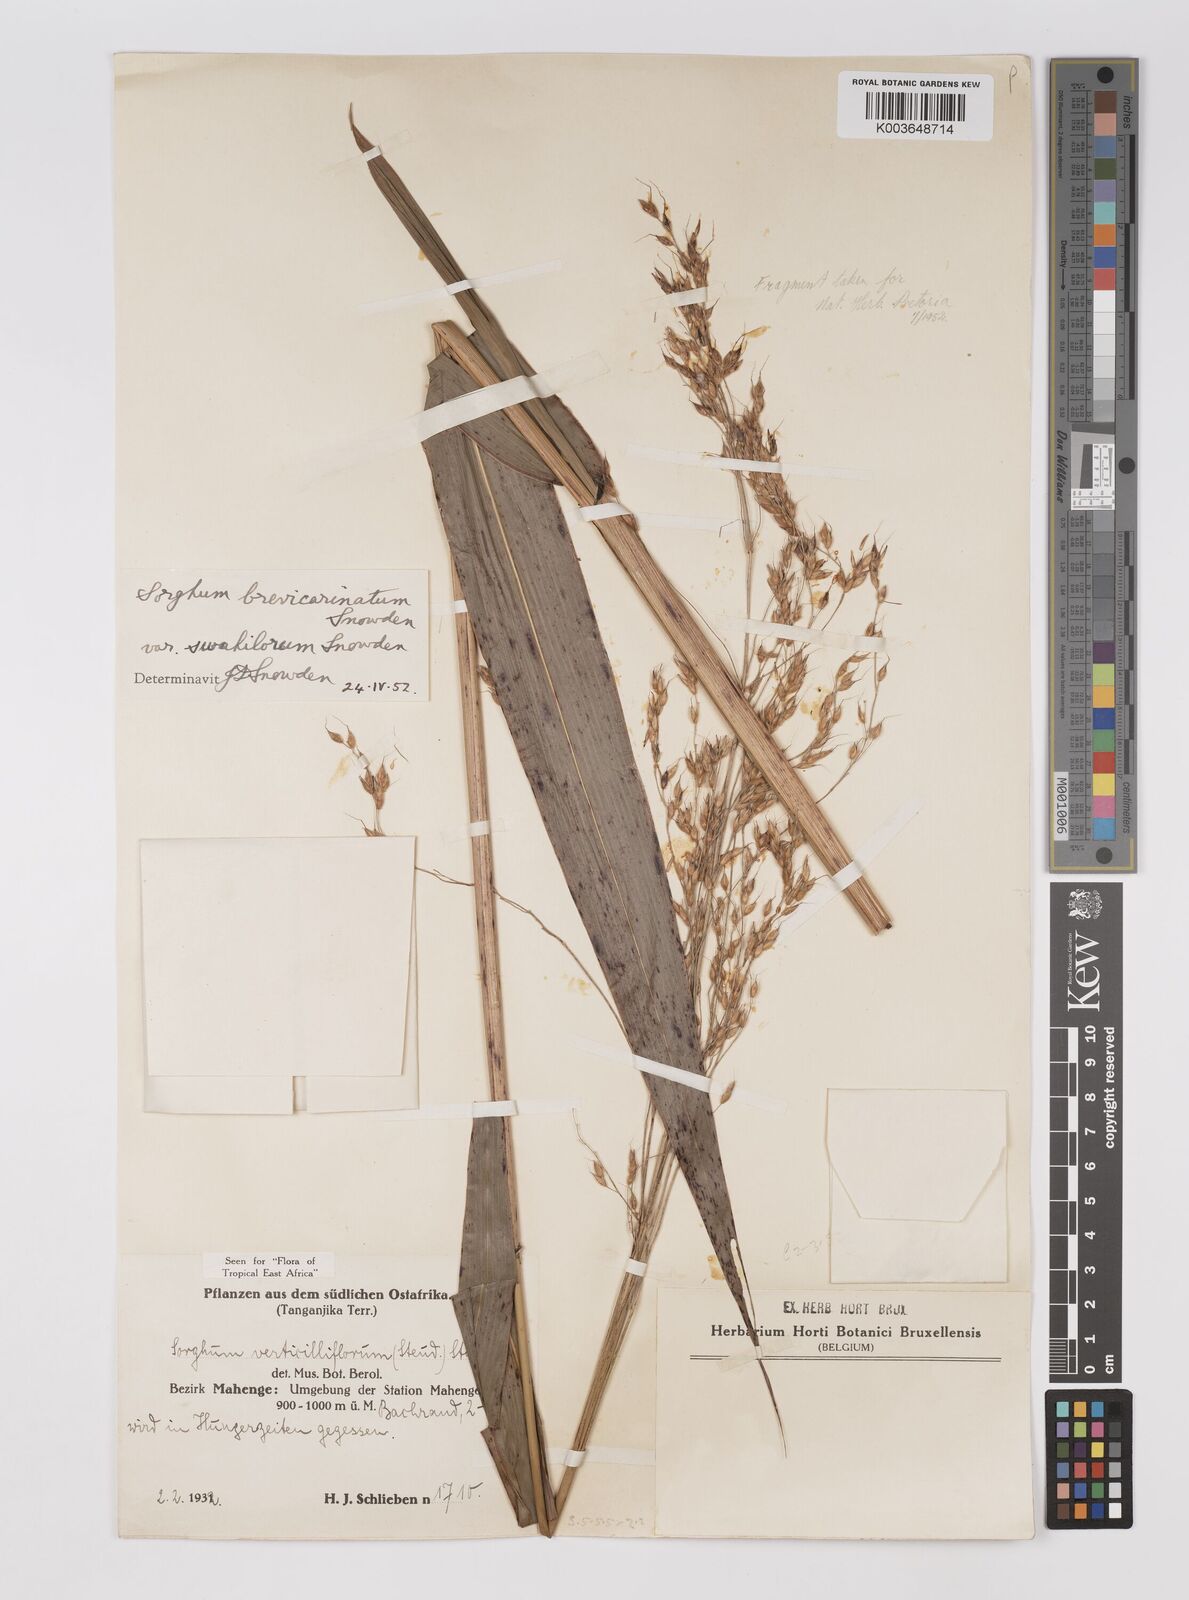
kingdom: Plantae
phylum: Tracheophyta
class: Liliopsida
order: Poales
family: Poaceae
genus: Sorghum
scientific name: Sorghum arundinaceum
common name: Sorghum
